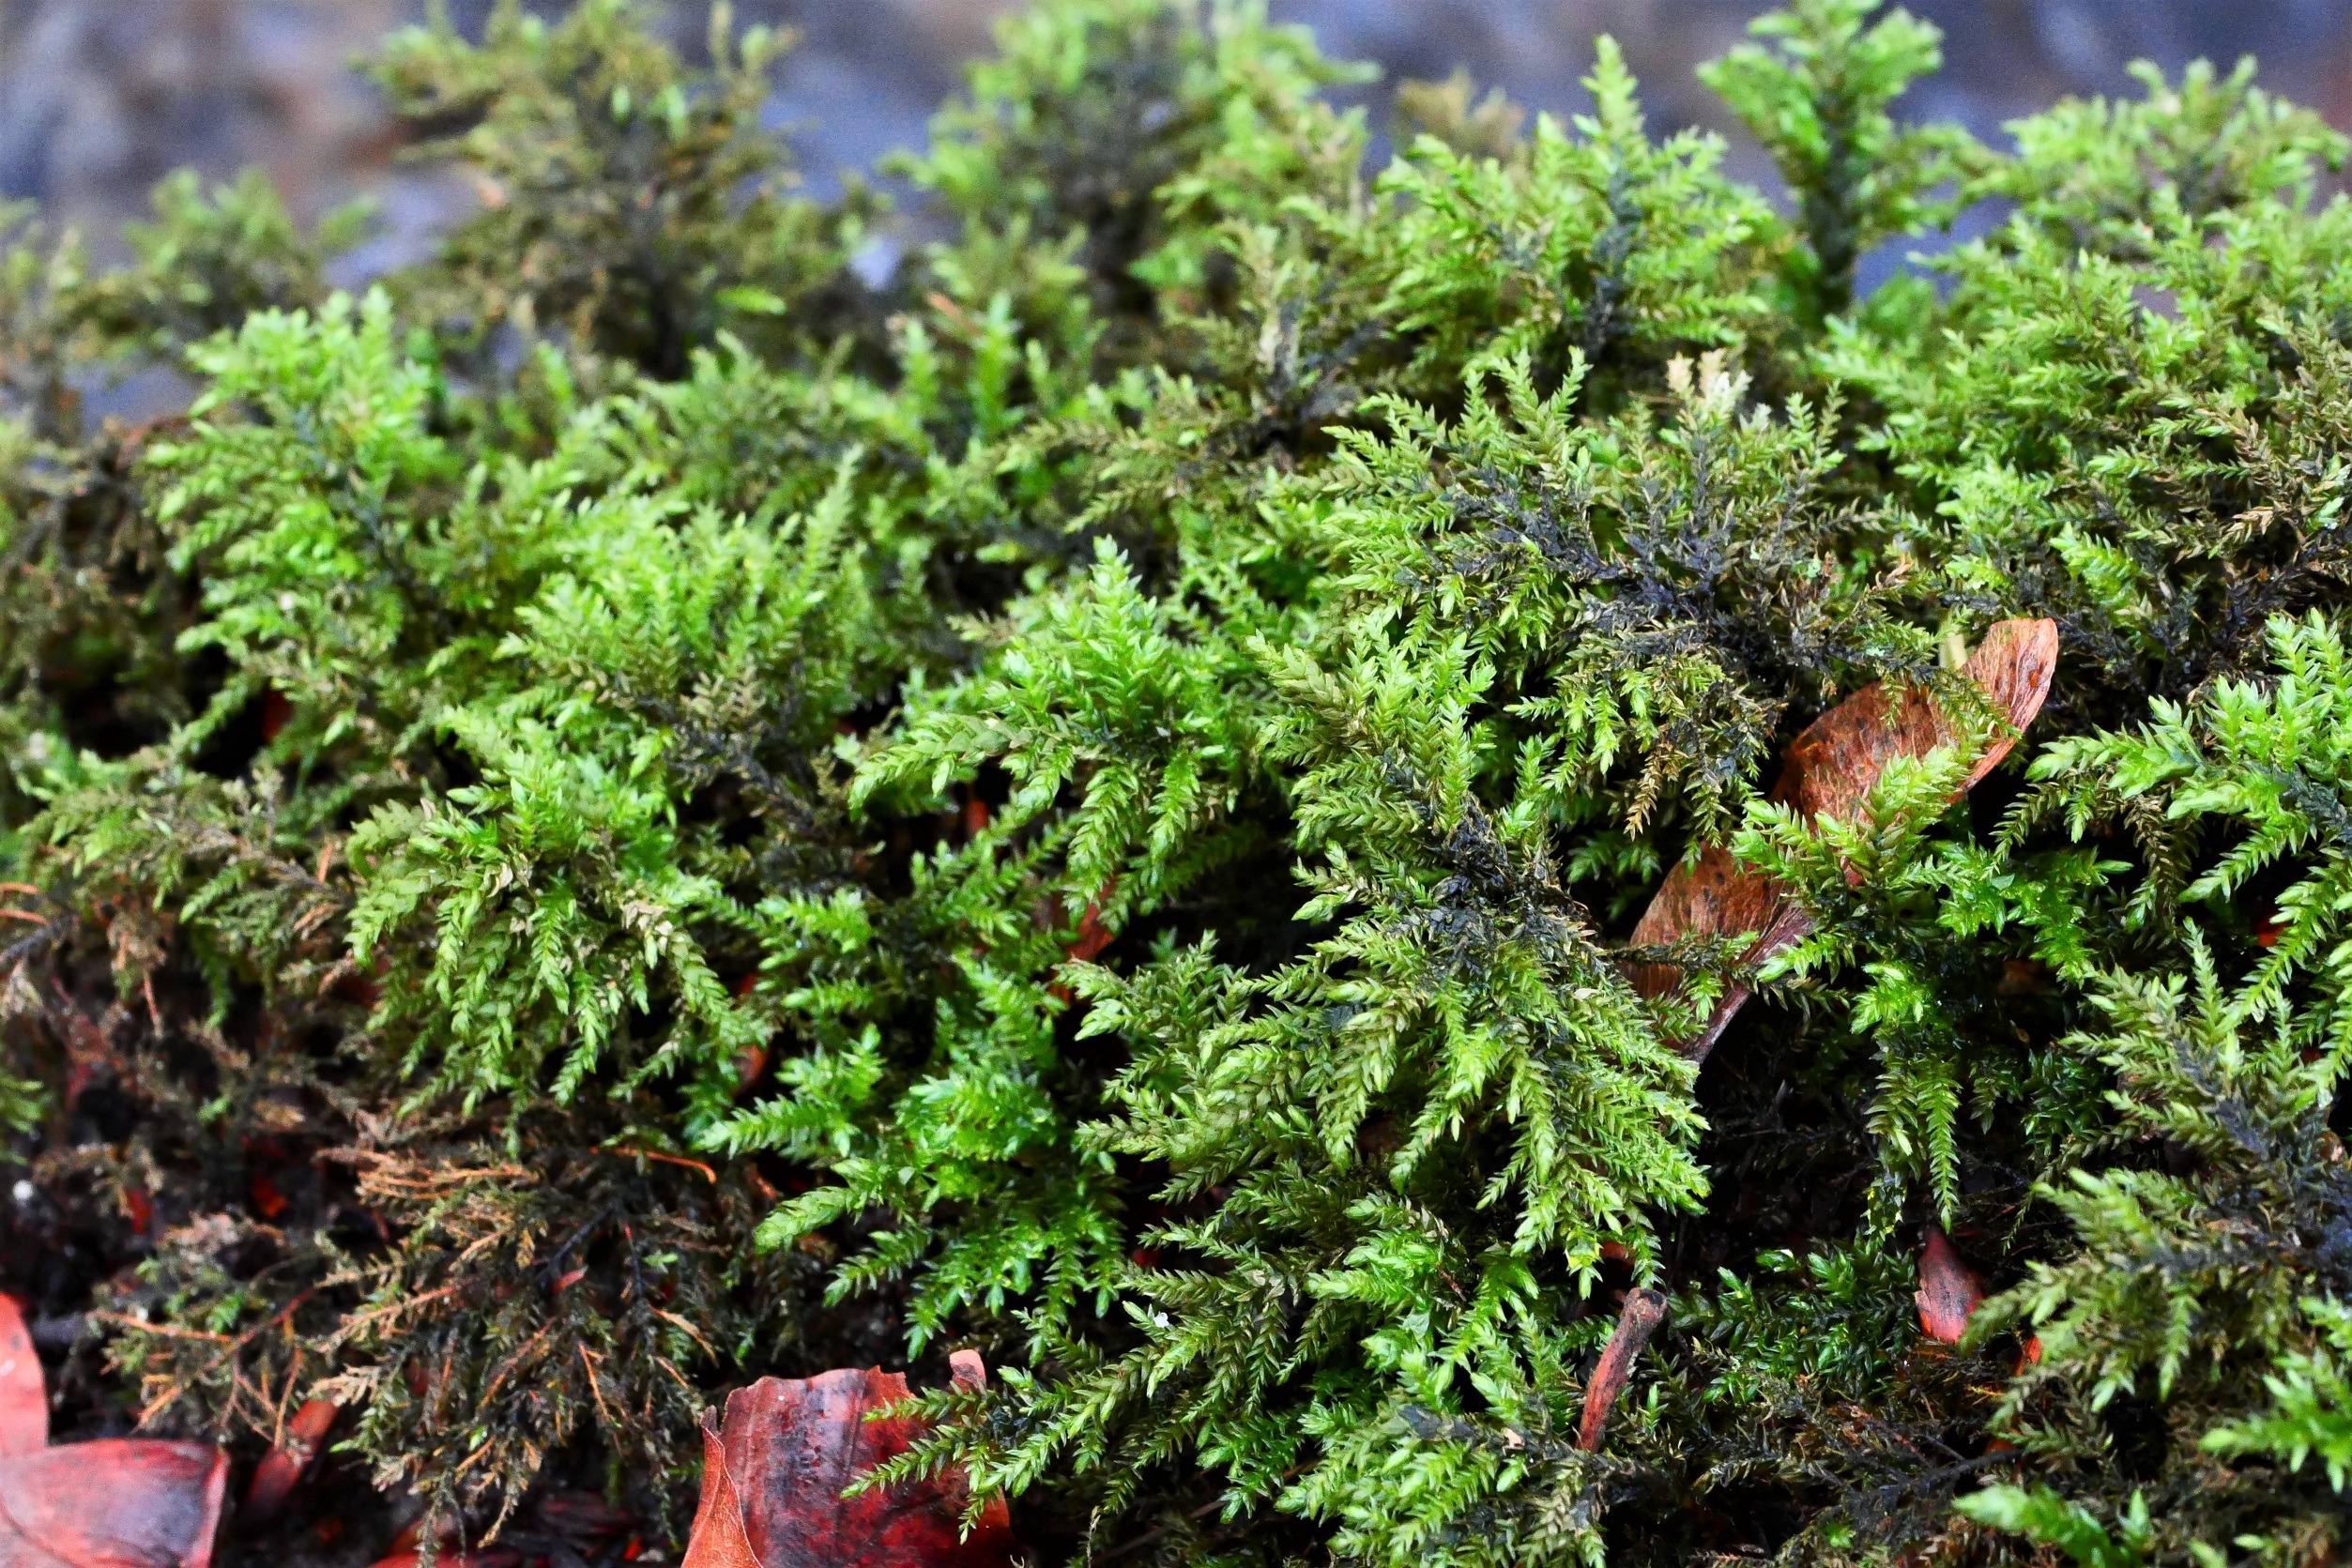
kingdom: Plantae
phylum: Bryophyta
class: Bryopsida
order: Hypnales
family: Neckeraceae
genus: Thamnobryum
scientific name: Thamnobryum alopecurum
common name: Mat bækkost
